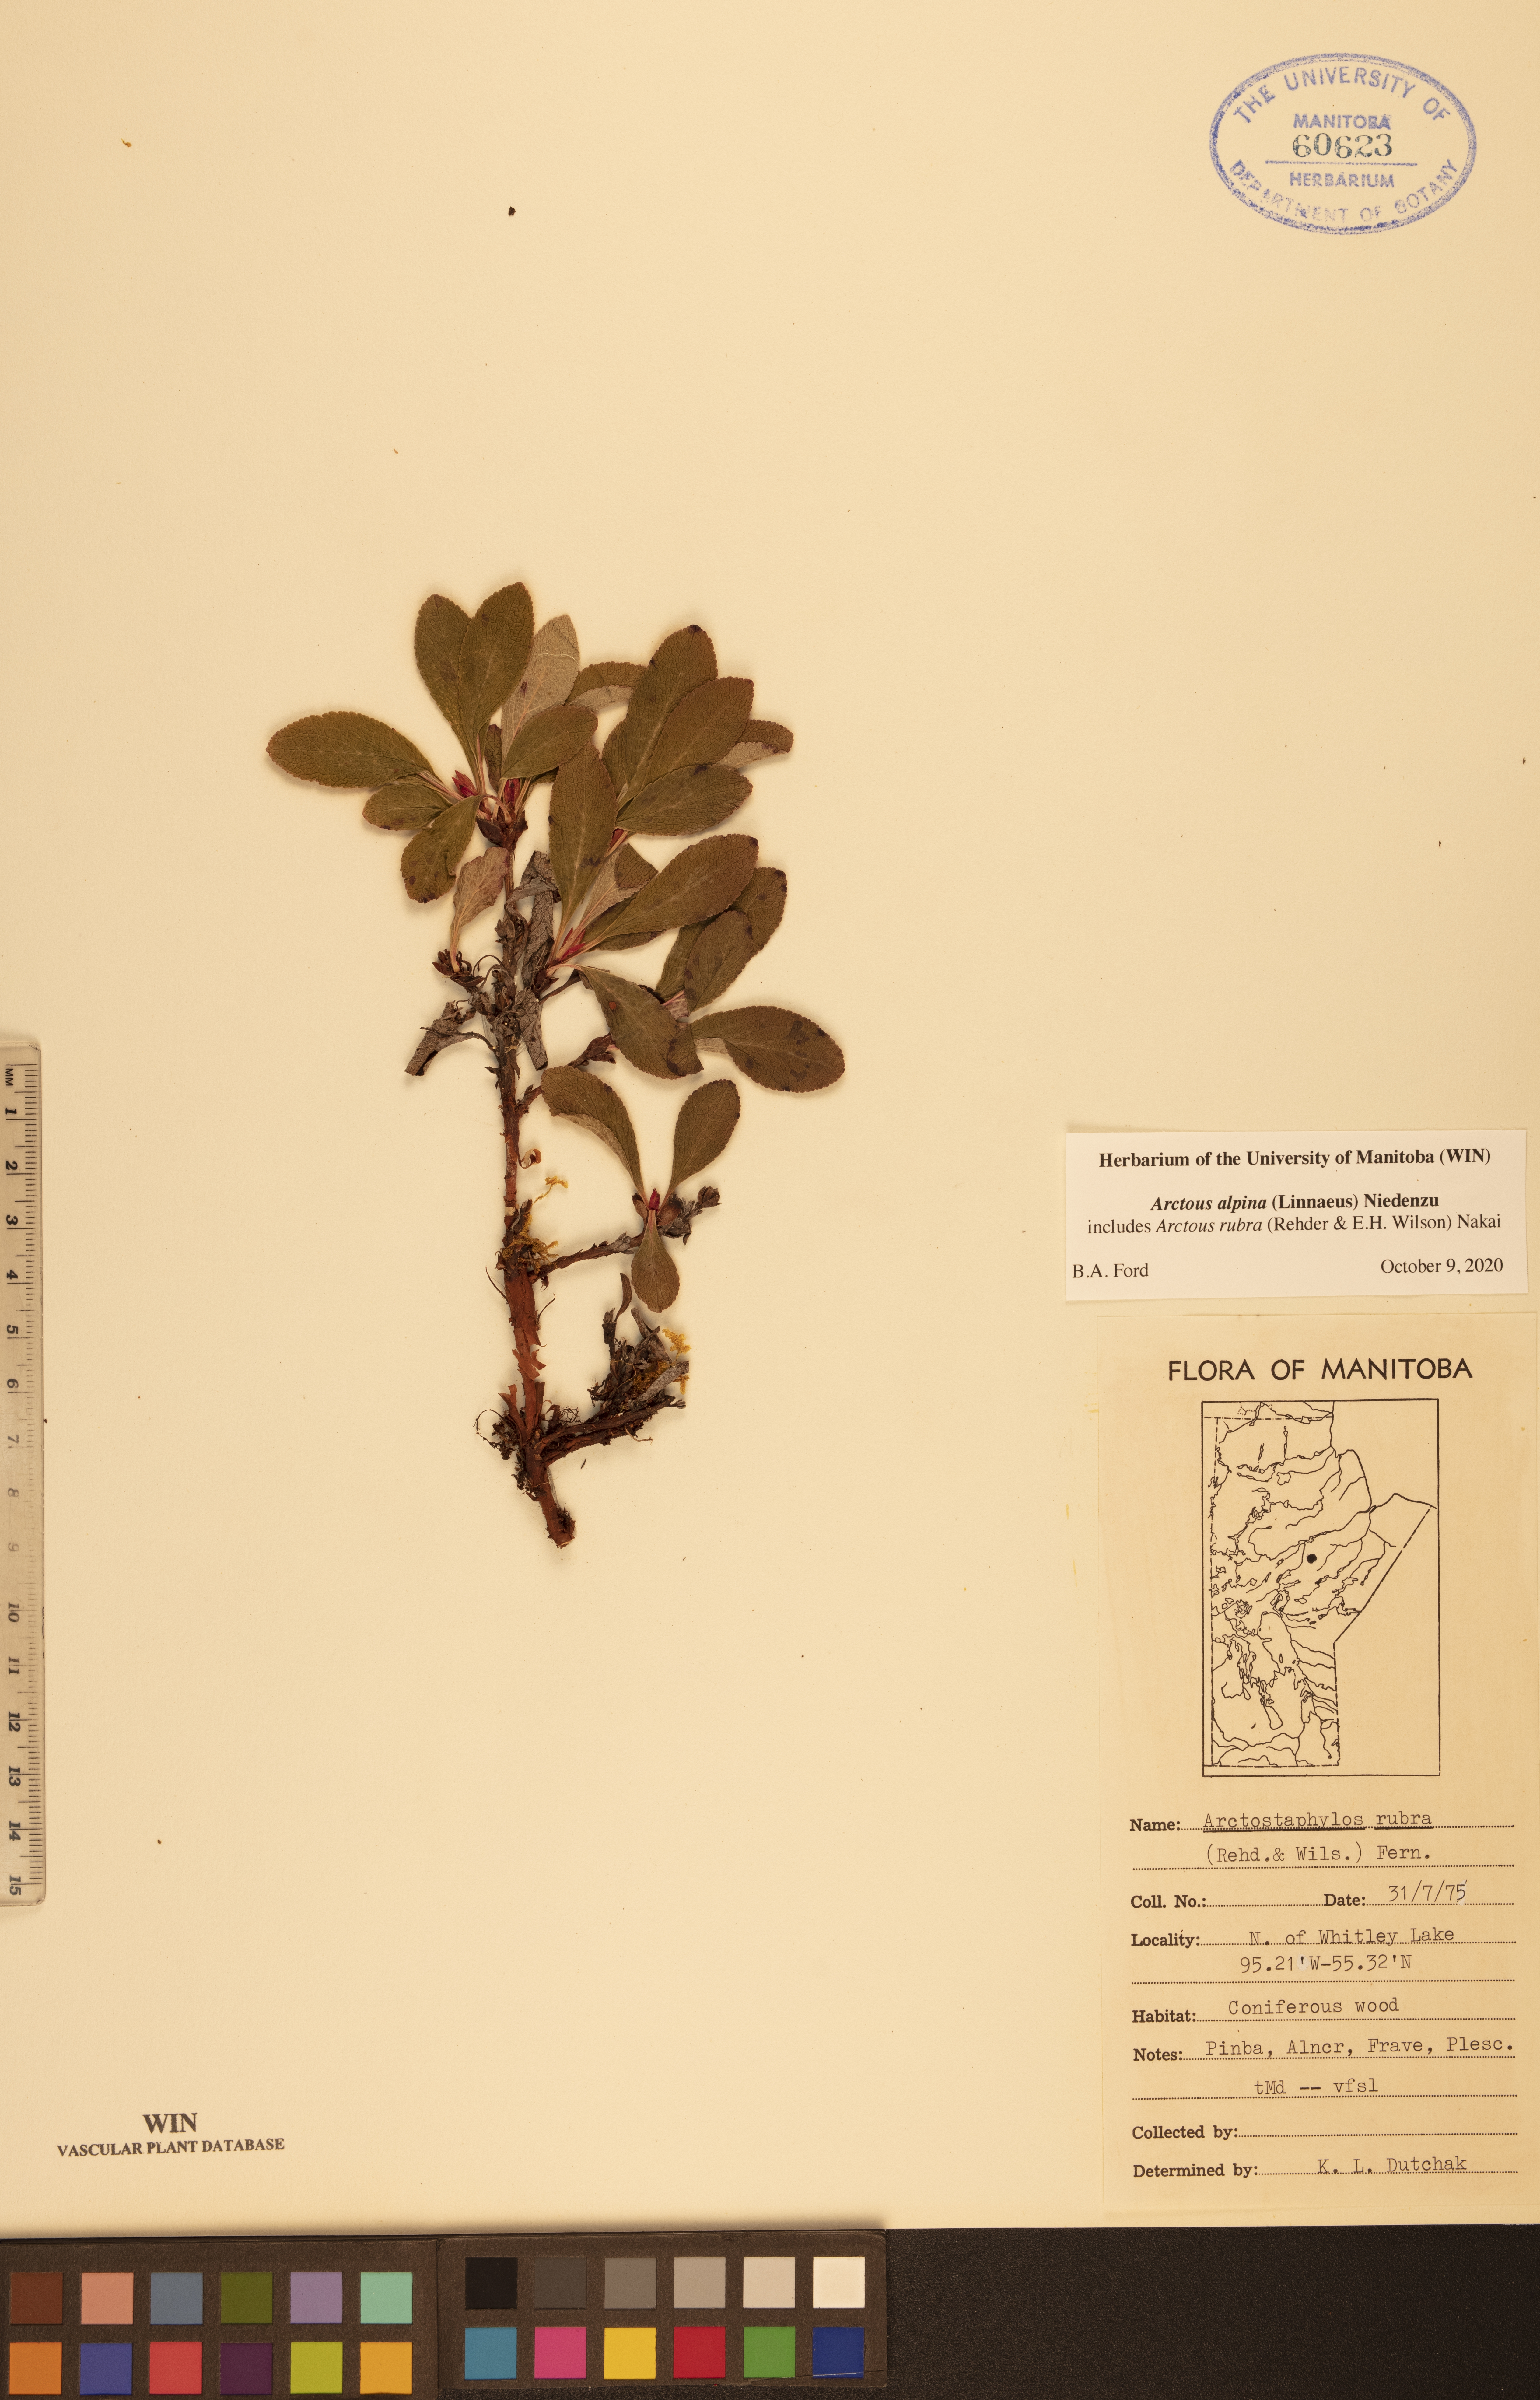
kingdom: Plantae
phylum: Tracheophyta
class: Magnoliopsida
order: Ericales
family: Ericaceae
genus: Arctostaphylos
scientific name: Arctostaphylos alpinus
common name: Alpine bearberry
